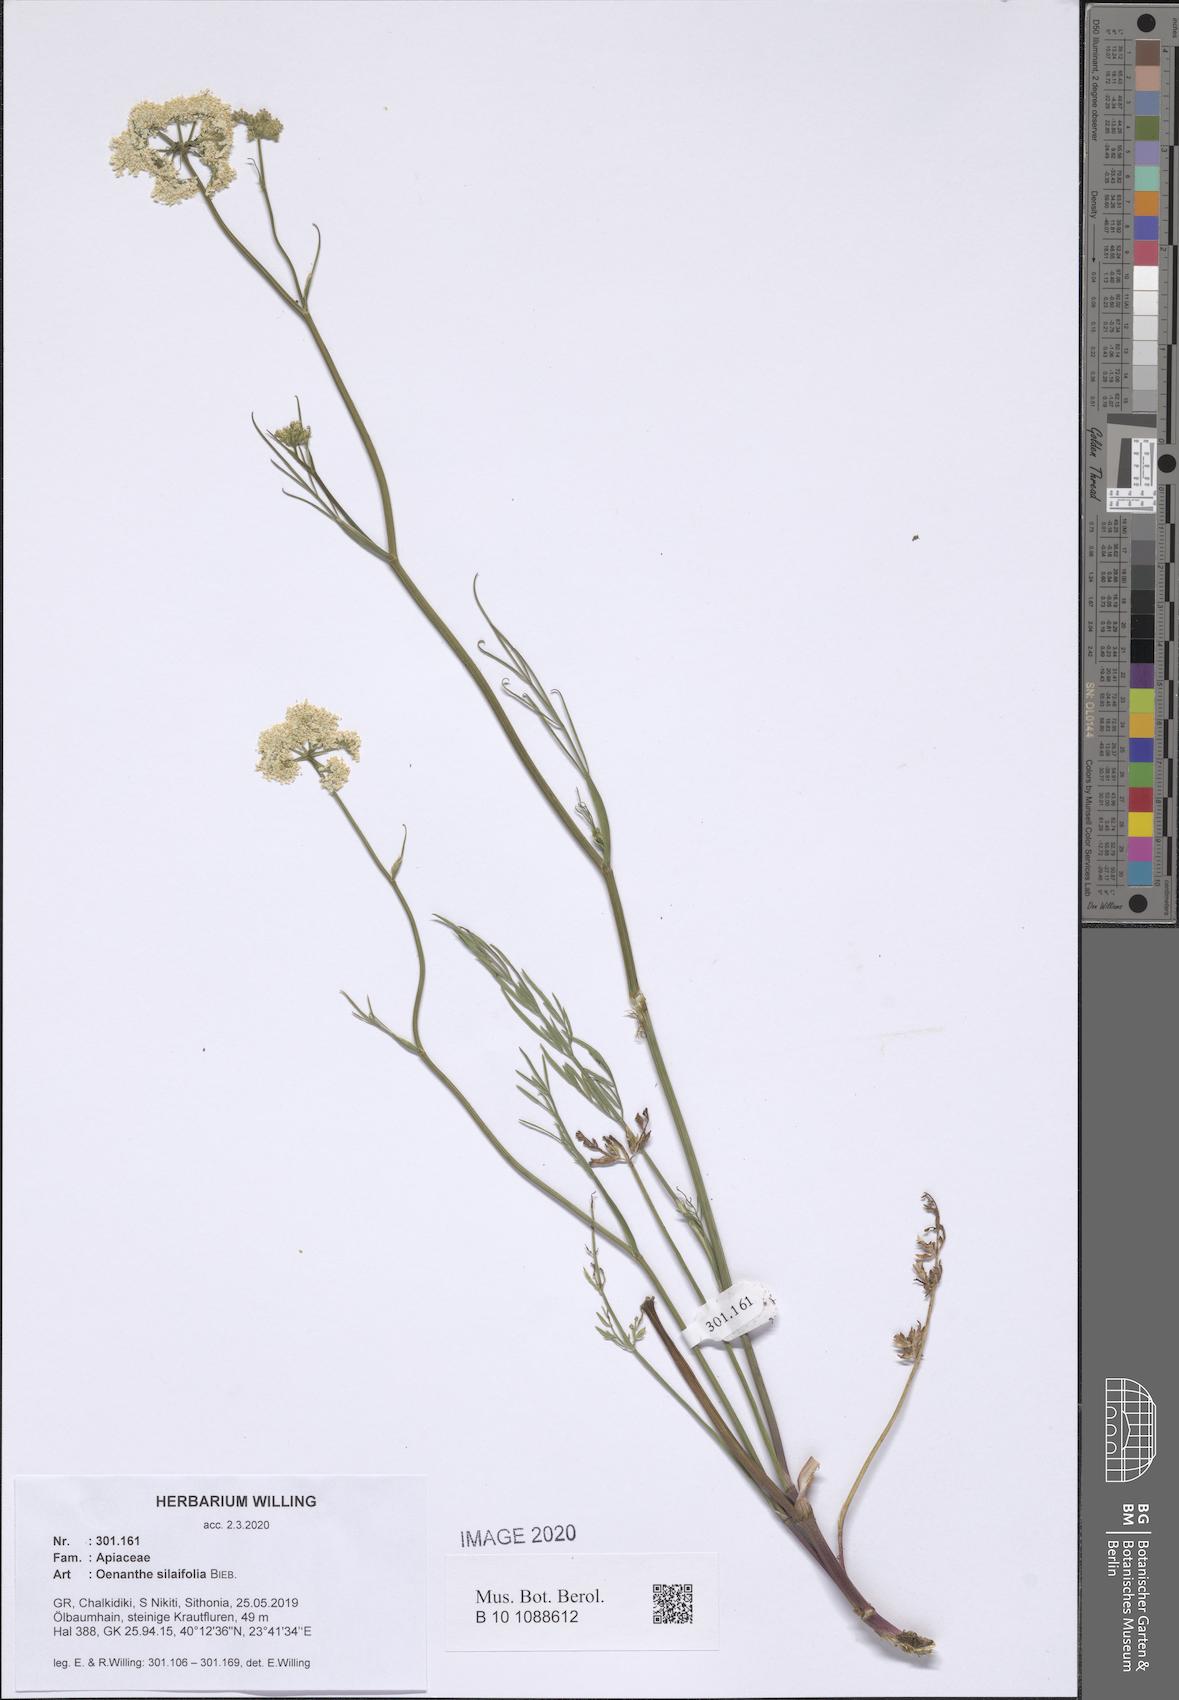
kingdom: Plantae
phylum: Tracheophyta
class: Magnoliopsida
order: Apiales
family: Apiaceae
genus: Oenanthe
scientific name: Oenanthe silaifolia
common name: Narrow-leaved water-dropwort
